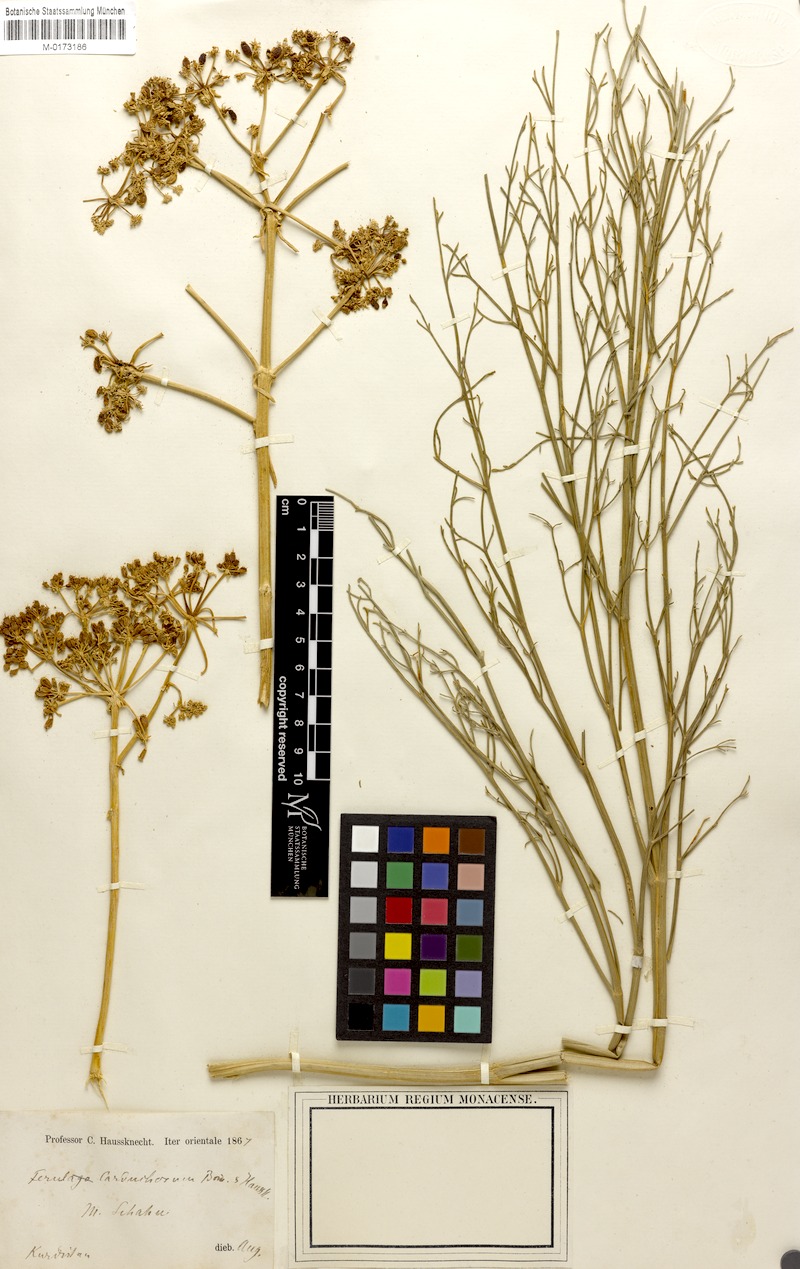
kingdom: Plantae
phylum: Tracheophyta
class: Magnoliopsida
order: Apiales
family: Apiaceae
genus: Ferulago
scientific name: Ferulago carduchorum
